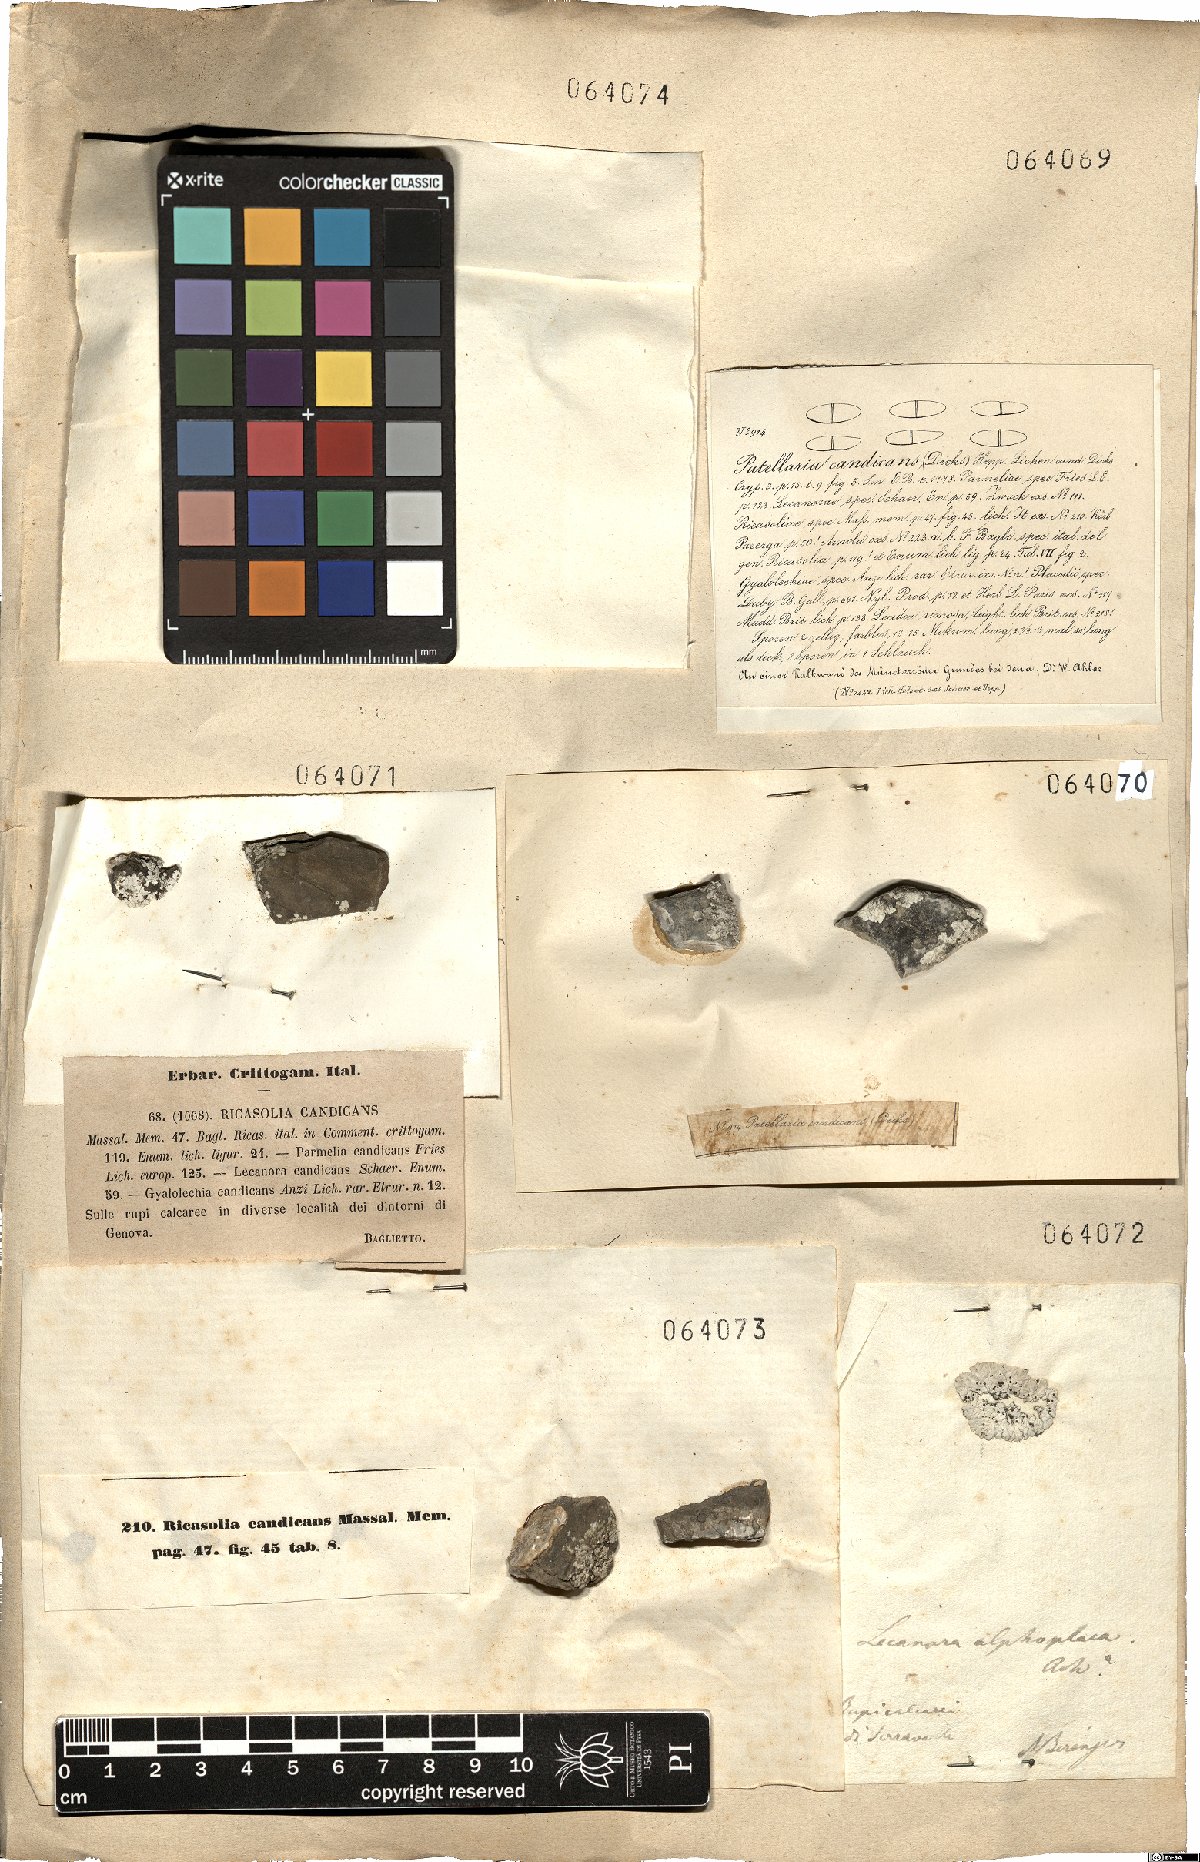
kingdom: Fungi
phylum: Ascomycota
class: Lecanoromycetes
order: Lecanorales
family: Catillariaceae
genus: Solenopsora
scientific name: Solenopsora candicans
